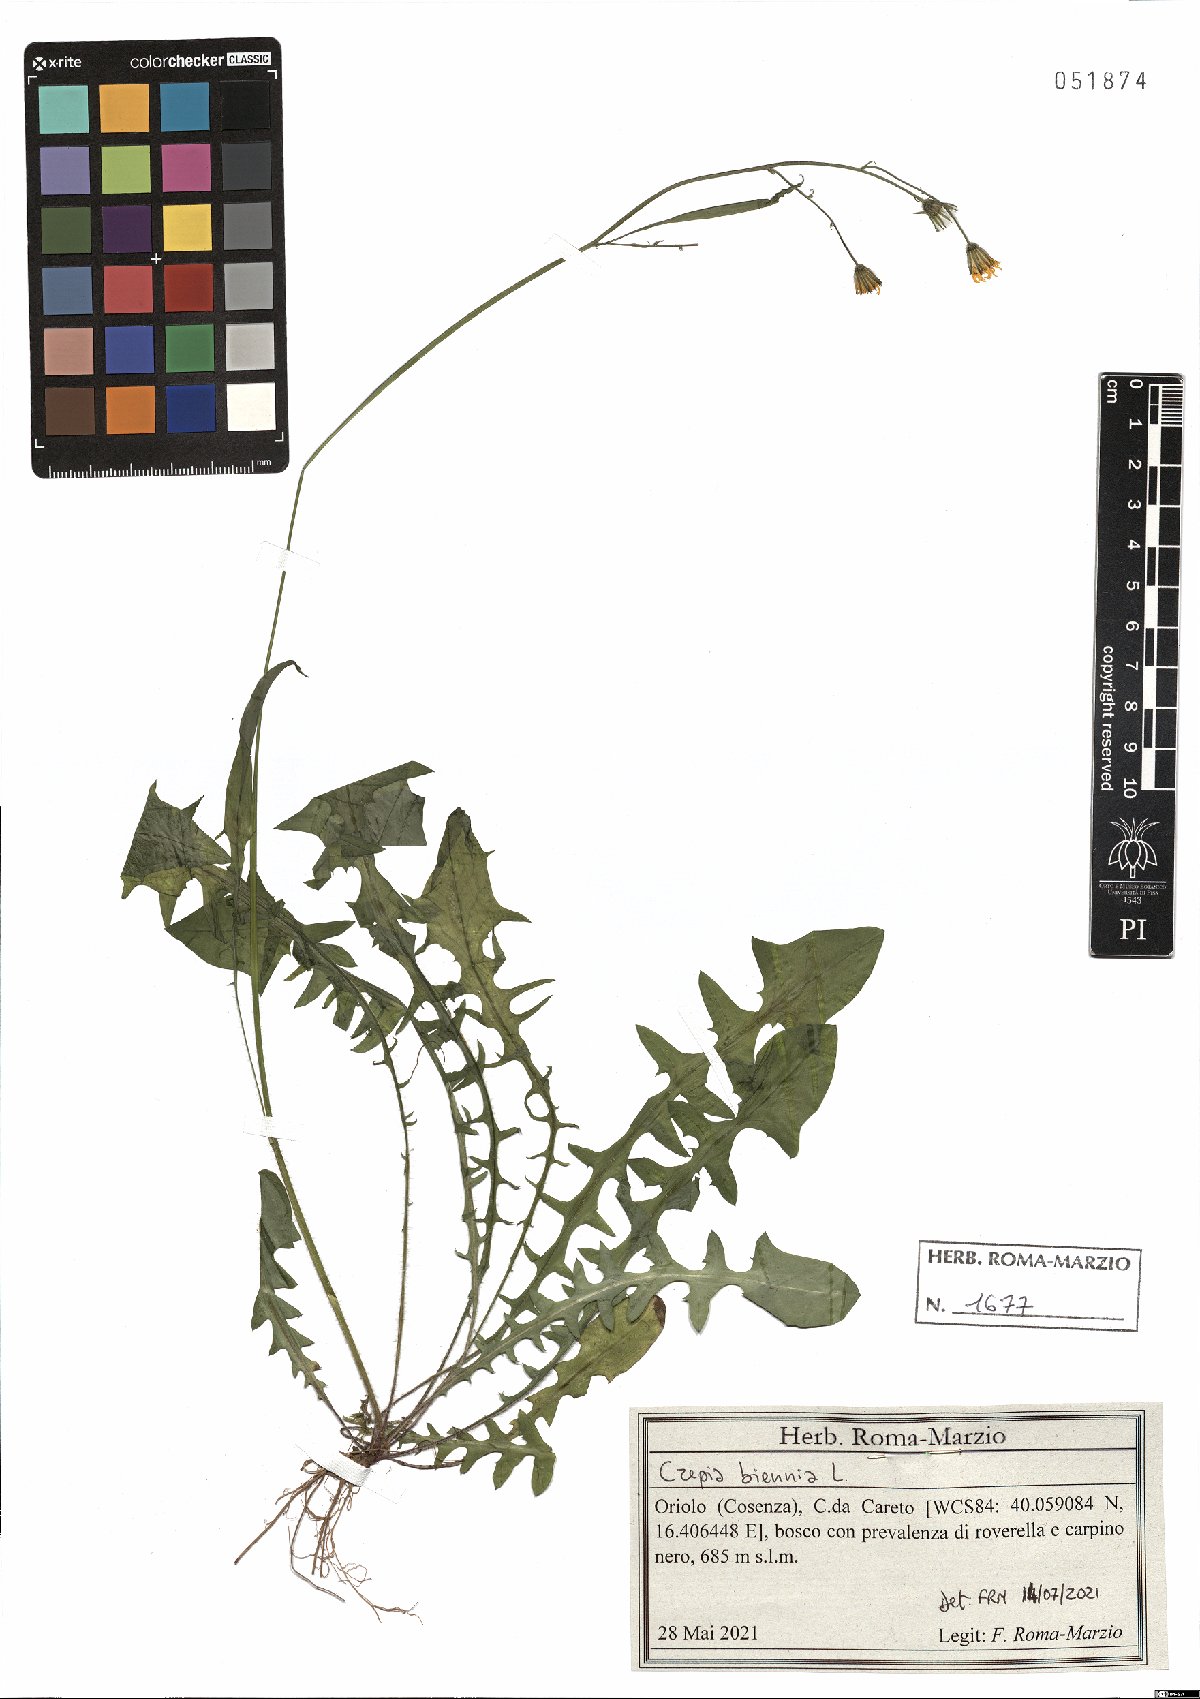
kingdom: Plantae
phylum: Tracheophyta
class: Magnoliopsida
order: Asterales
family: Asteraceae
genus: Crepis
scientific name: Crepis biennis
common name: Rough hawk's-beard
